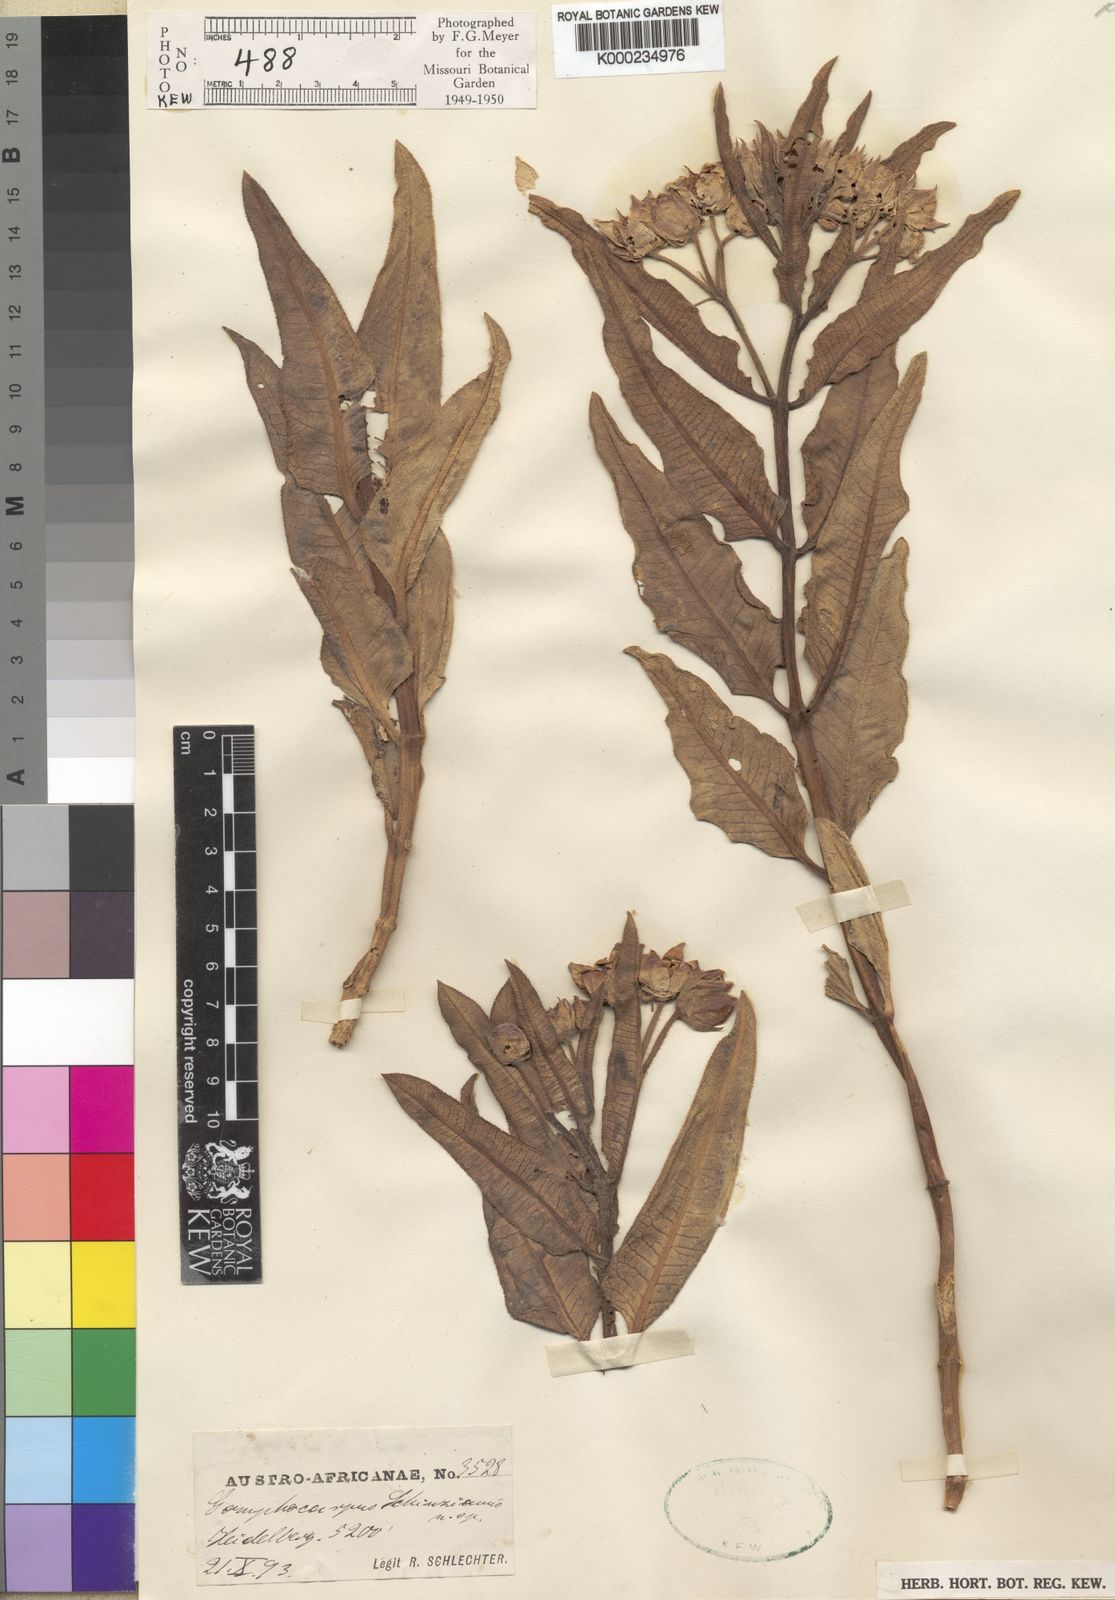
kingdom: Plantae
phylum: Tracheophyta
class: Magnoliopsida
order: Gentianales
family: Apocynaceae
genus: Pachycarpus
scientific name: Pachycarpus schinzianus
